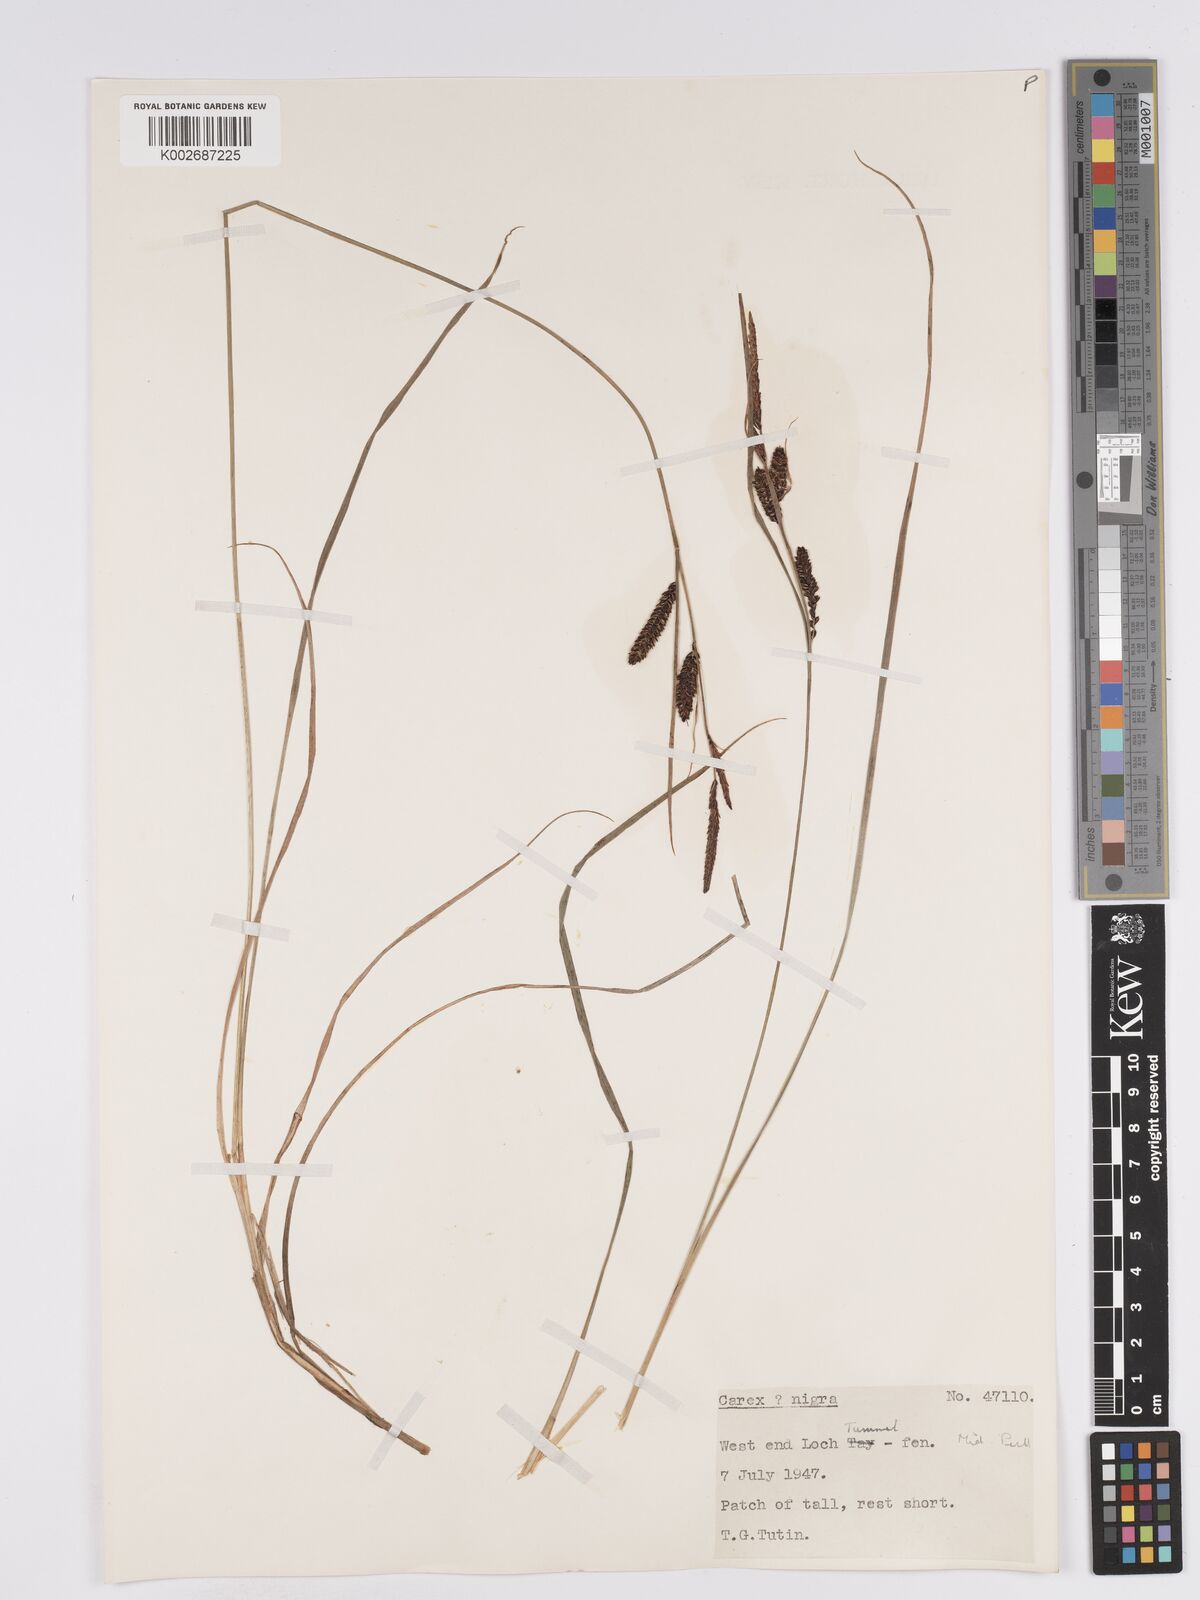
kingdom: Plantae
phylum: Tracheophyta
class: Liliopsida
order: Poales
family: Cyperaceae
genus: Carex
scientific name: Carex nigra
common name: Common sedge
